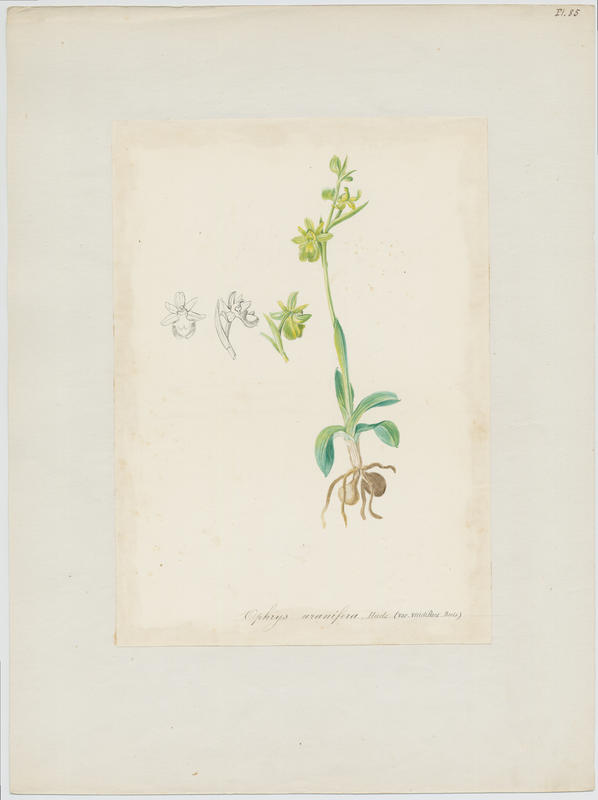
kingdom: Plantae
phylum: Tracheophyta
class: Liliopsida
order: Asparagales
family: Orchidaceae
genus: Ophrys
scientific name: Ophrys sphegodes
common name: Early spider-orchid
